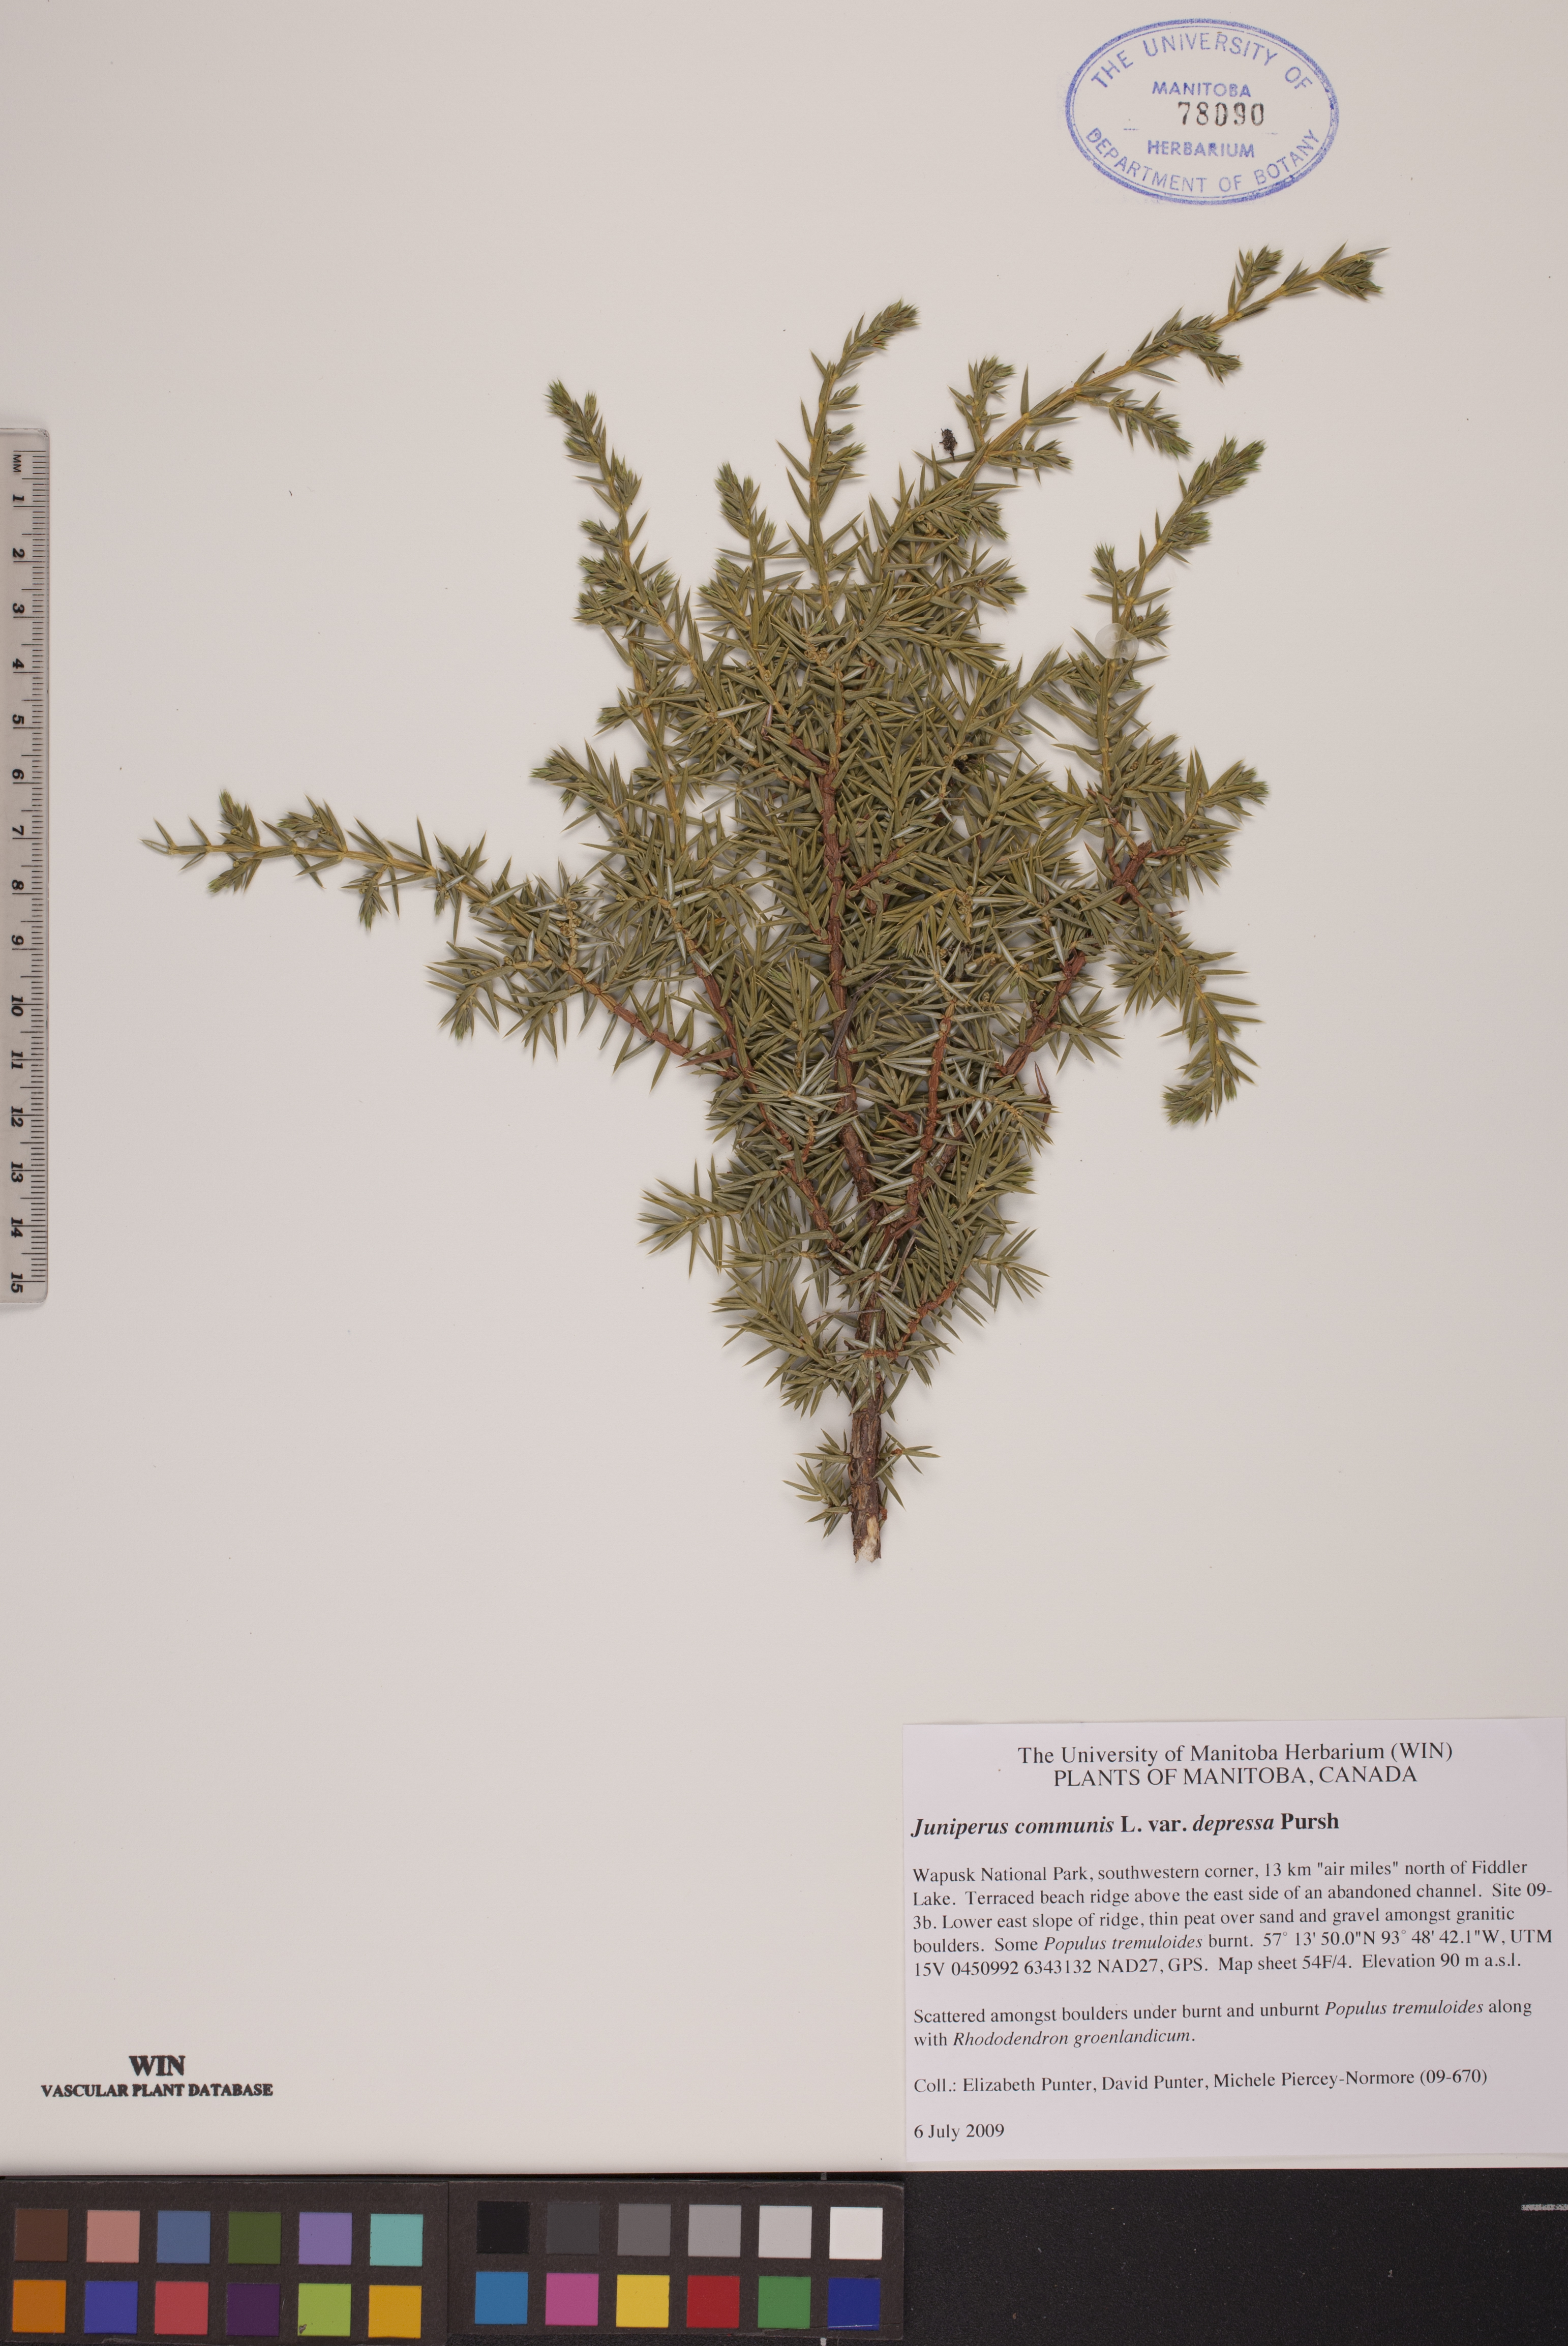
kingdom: Plantae
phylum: Tracheophyta
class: Pinopsida
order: Pinales
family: Cupressaceae
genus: Juniperus
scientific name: Juniperus communis
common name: Common juniper
